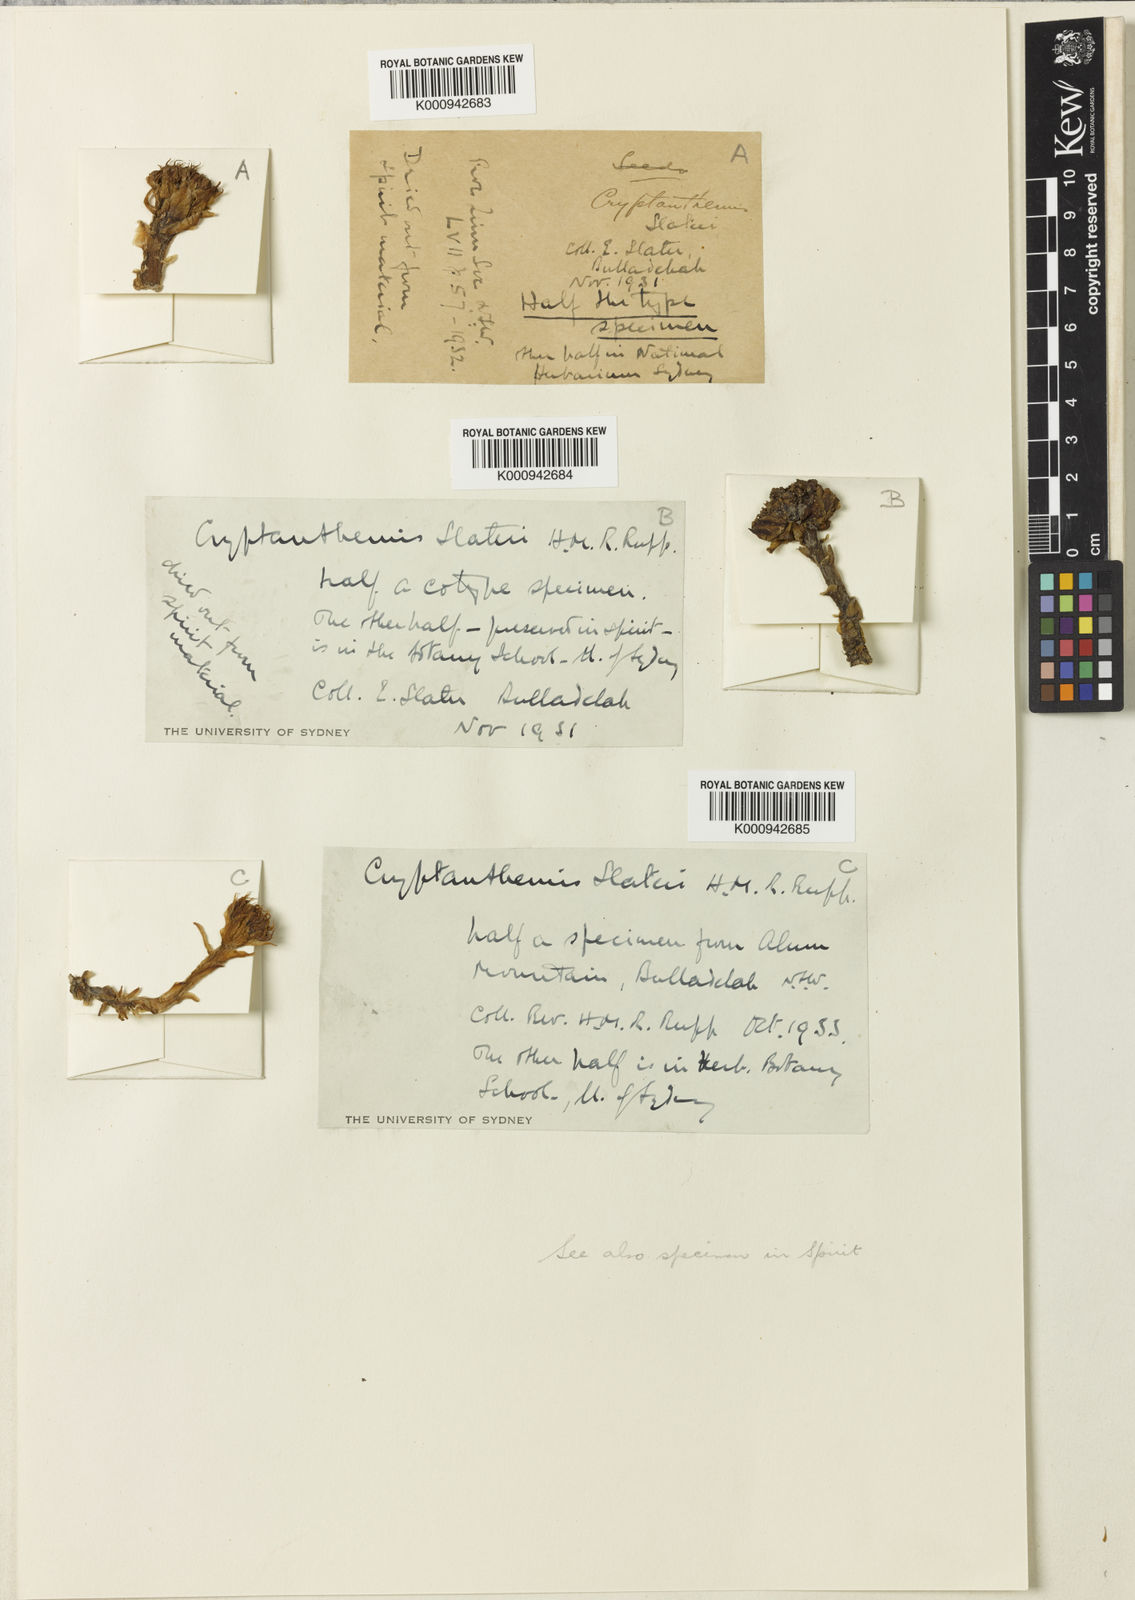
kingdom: Plantae
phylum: Tracheophyta
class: Liliopsida
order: Asparagales
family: Orchidaceae
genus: Rhizanthella
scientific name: Rhizanthella slateri
